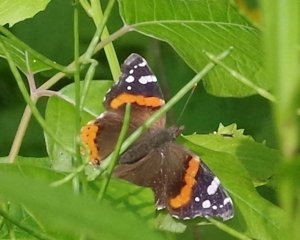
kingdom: Animalia
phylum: Arthropoda
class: Insecta
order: Lepidoptera
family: Nymphalidae
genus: Vanessa
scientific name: Vanessa atalanta
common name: Red Admiral
